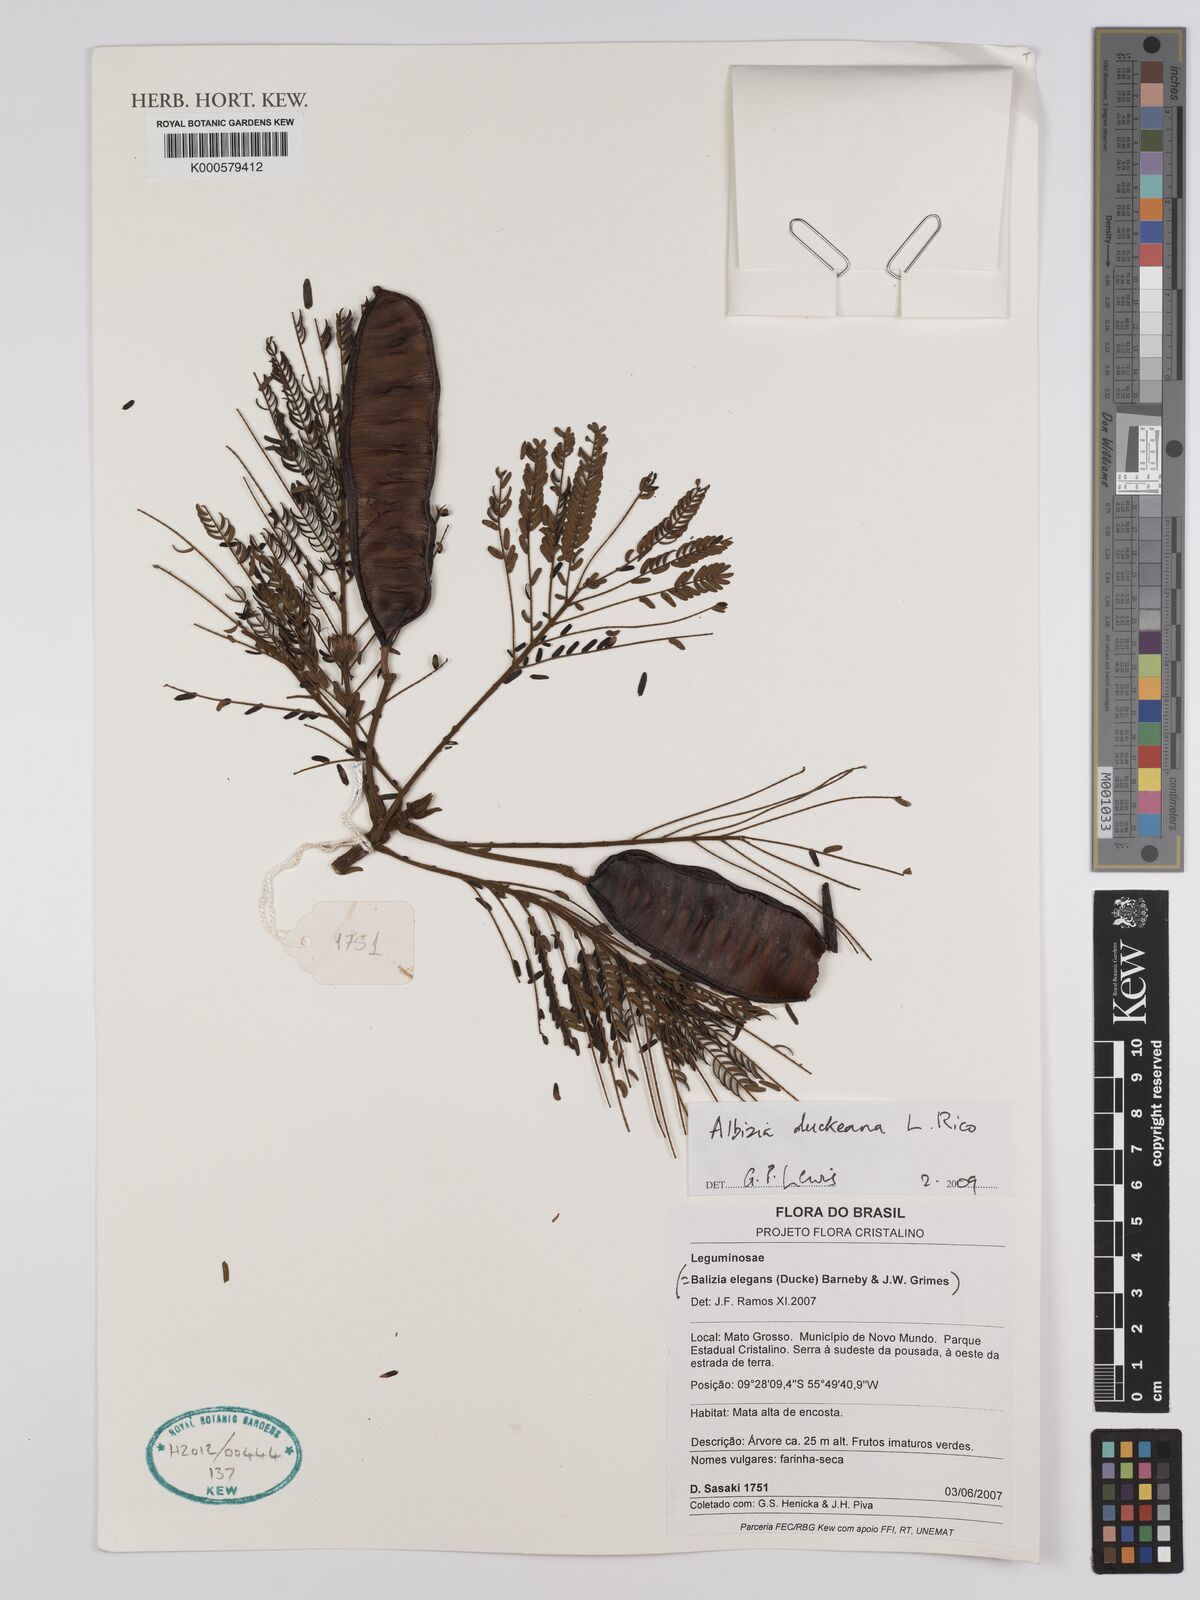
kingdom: Plantae
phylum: Tracheophyta
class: Magnoliopsida
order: Fabales
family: Fabaceae
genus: Balizia
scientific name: Balizia elegans
